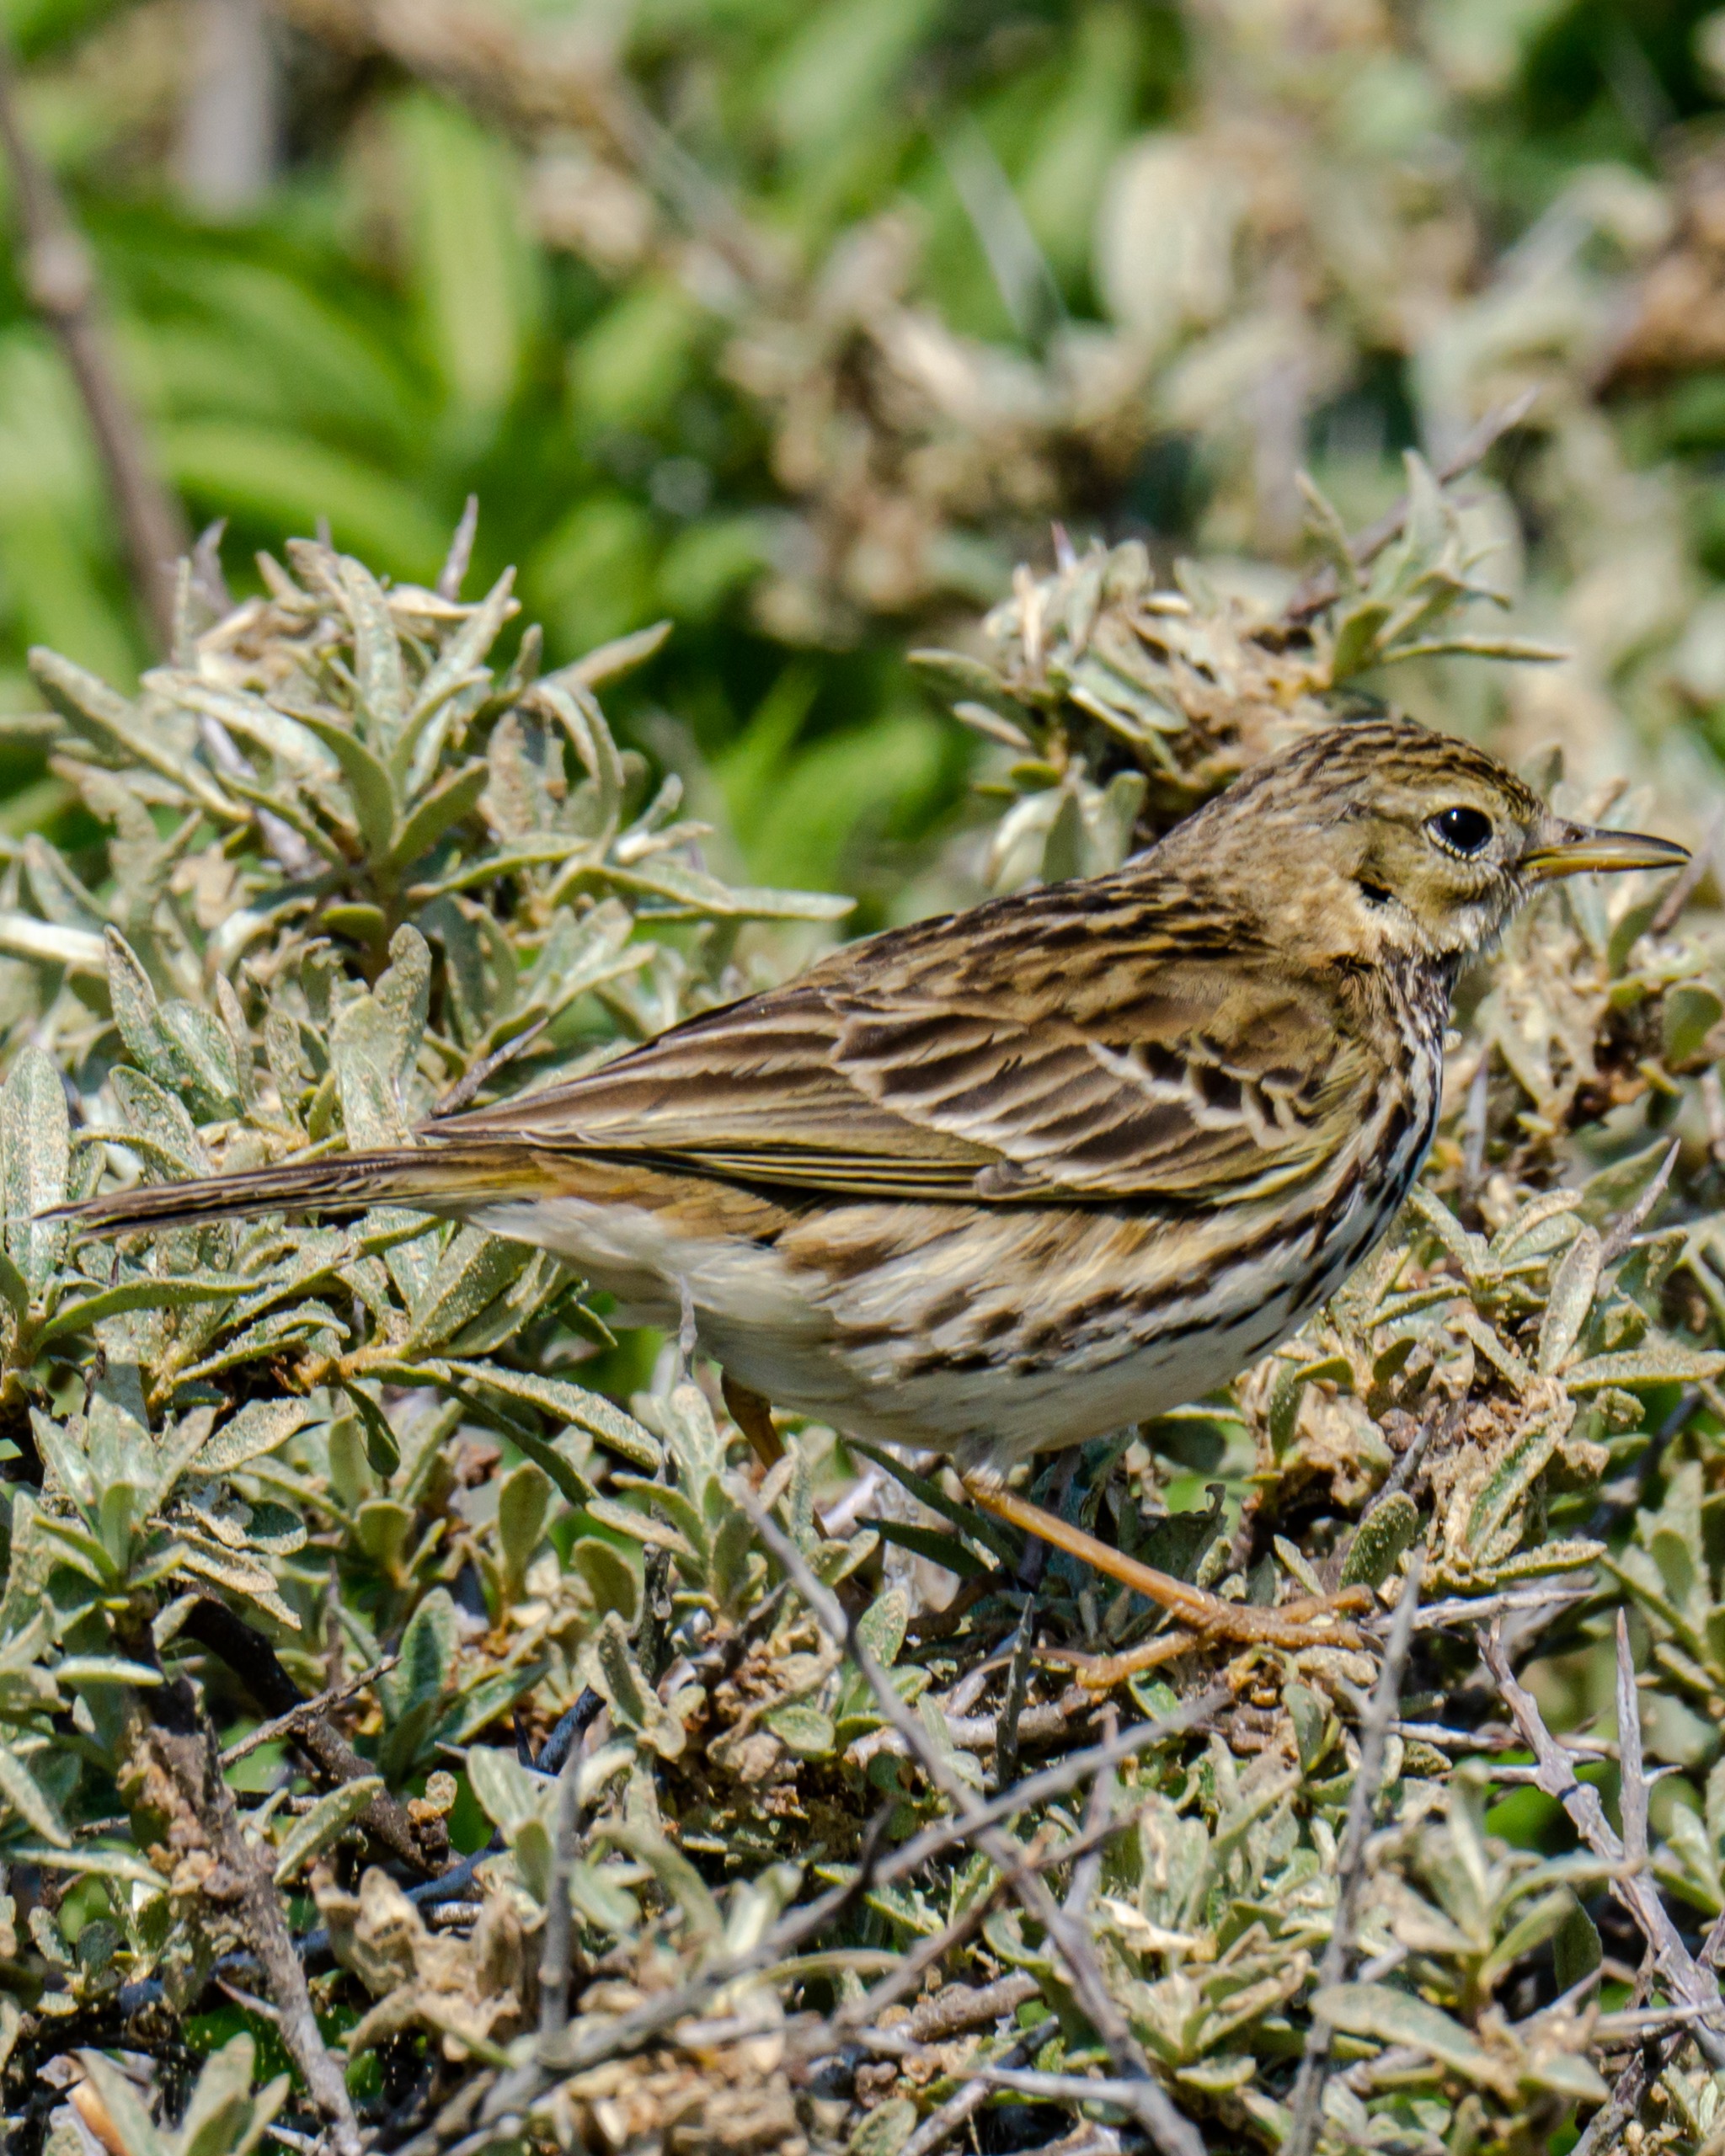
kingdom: Animalia
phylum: Chordata
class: Aves
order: Passeriformes
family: Motacillidae
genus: Anthus
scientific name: Anthus pratensis
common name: Engpiber
